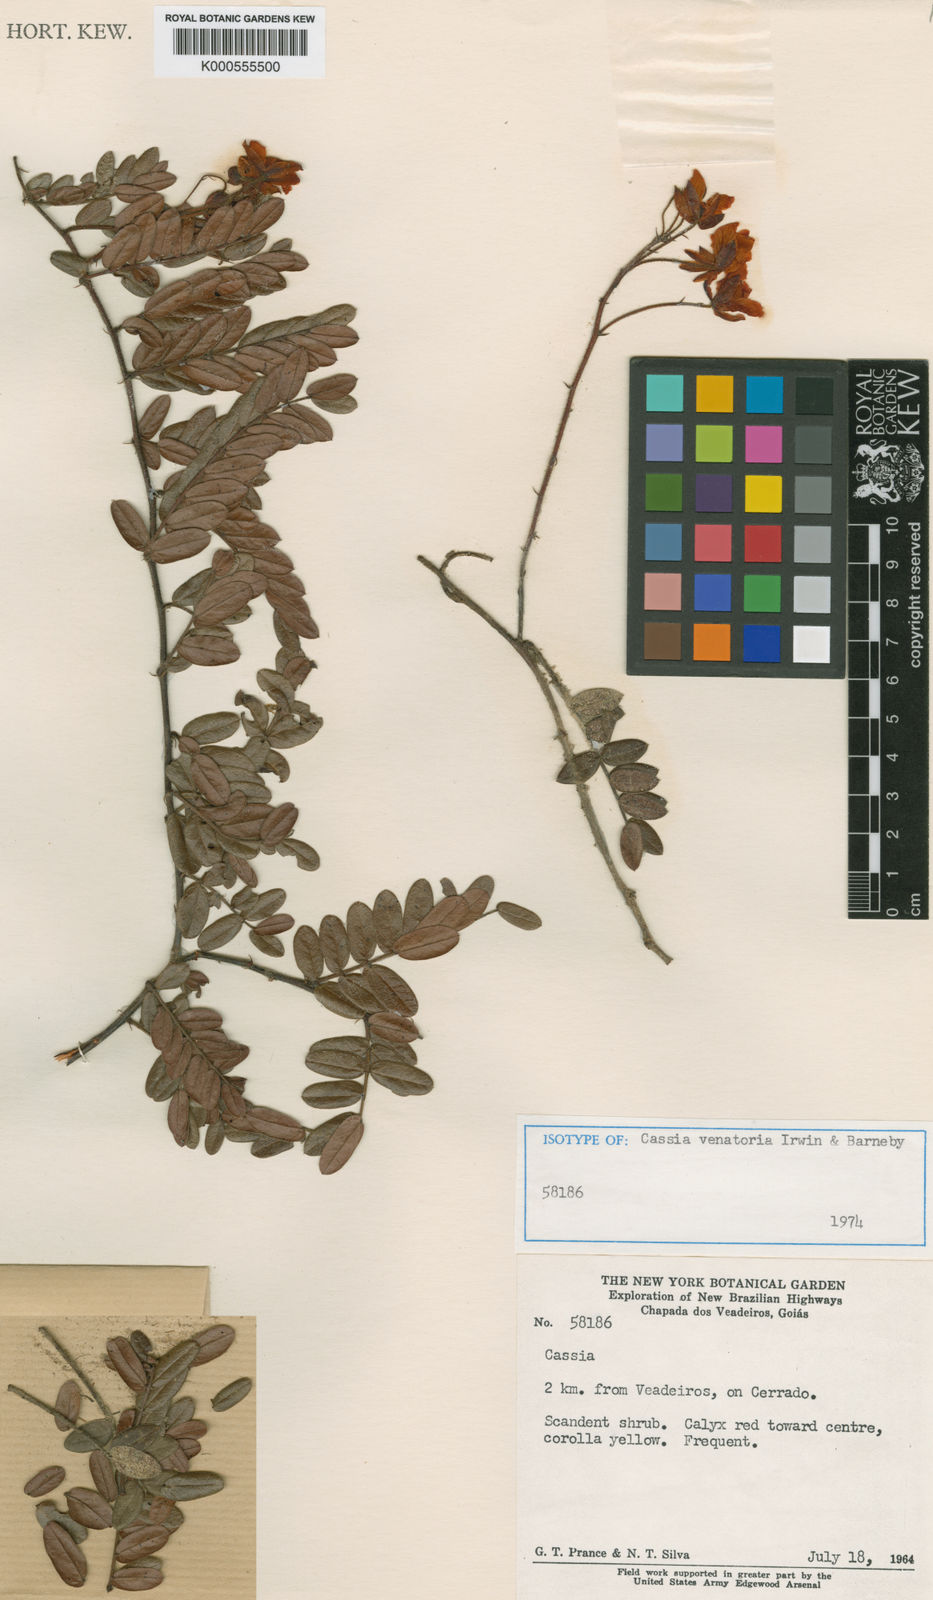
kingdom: Plantae
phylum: Tracheophyta
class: Magnoliopsida
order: Fabales
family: Fabaceae
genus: Chamaecrista
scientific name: Chamaecrista oligosperma
